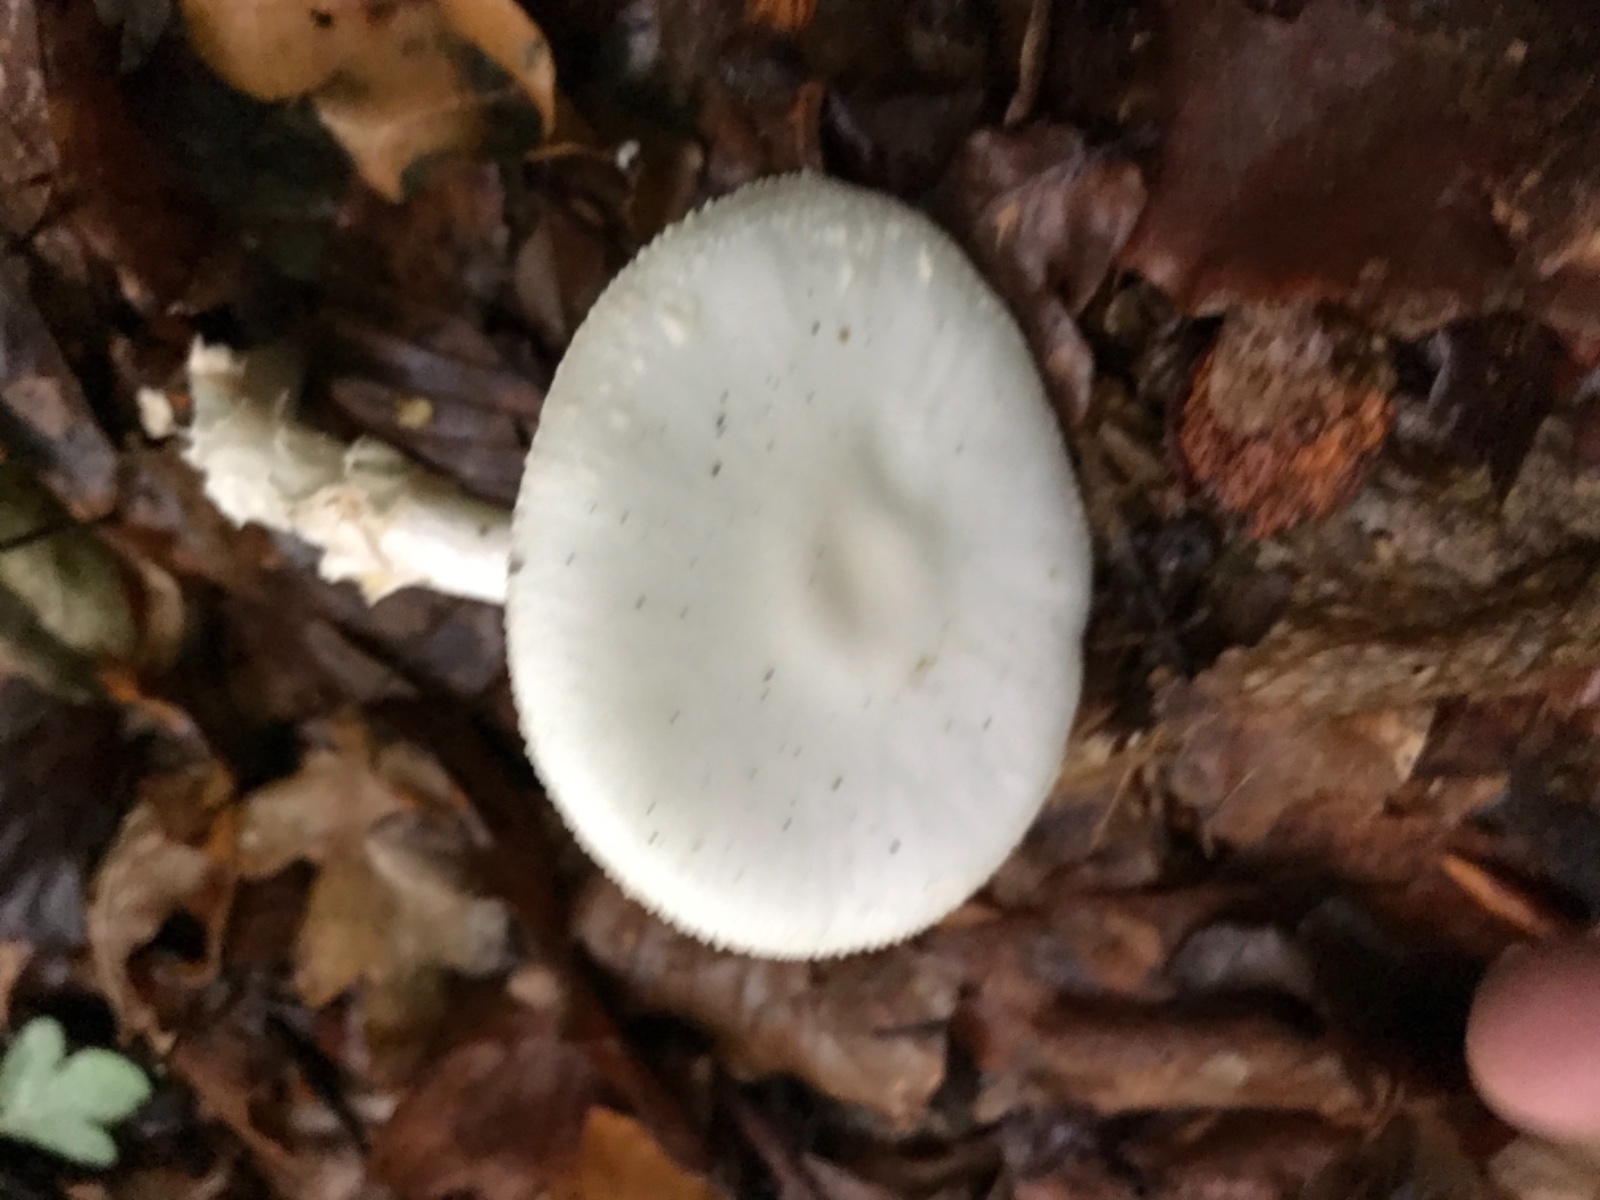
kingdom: Fungi
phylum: Basidiomycota
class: Agaricomycetes
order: Agaricales
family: Amanitaceae
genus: Amanita
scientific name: Amanita virosa
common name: snehvid fluesvamp
